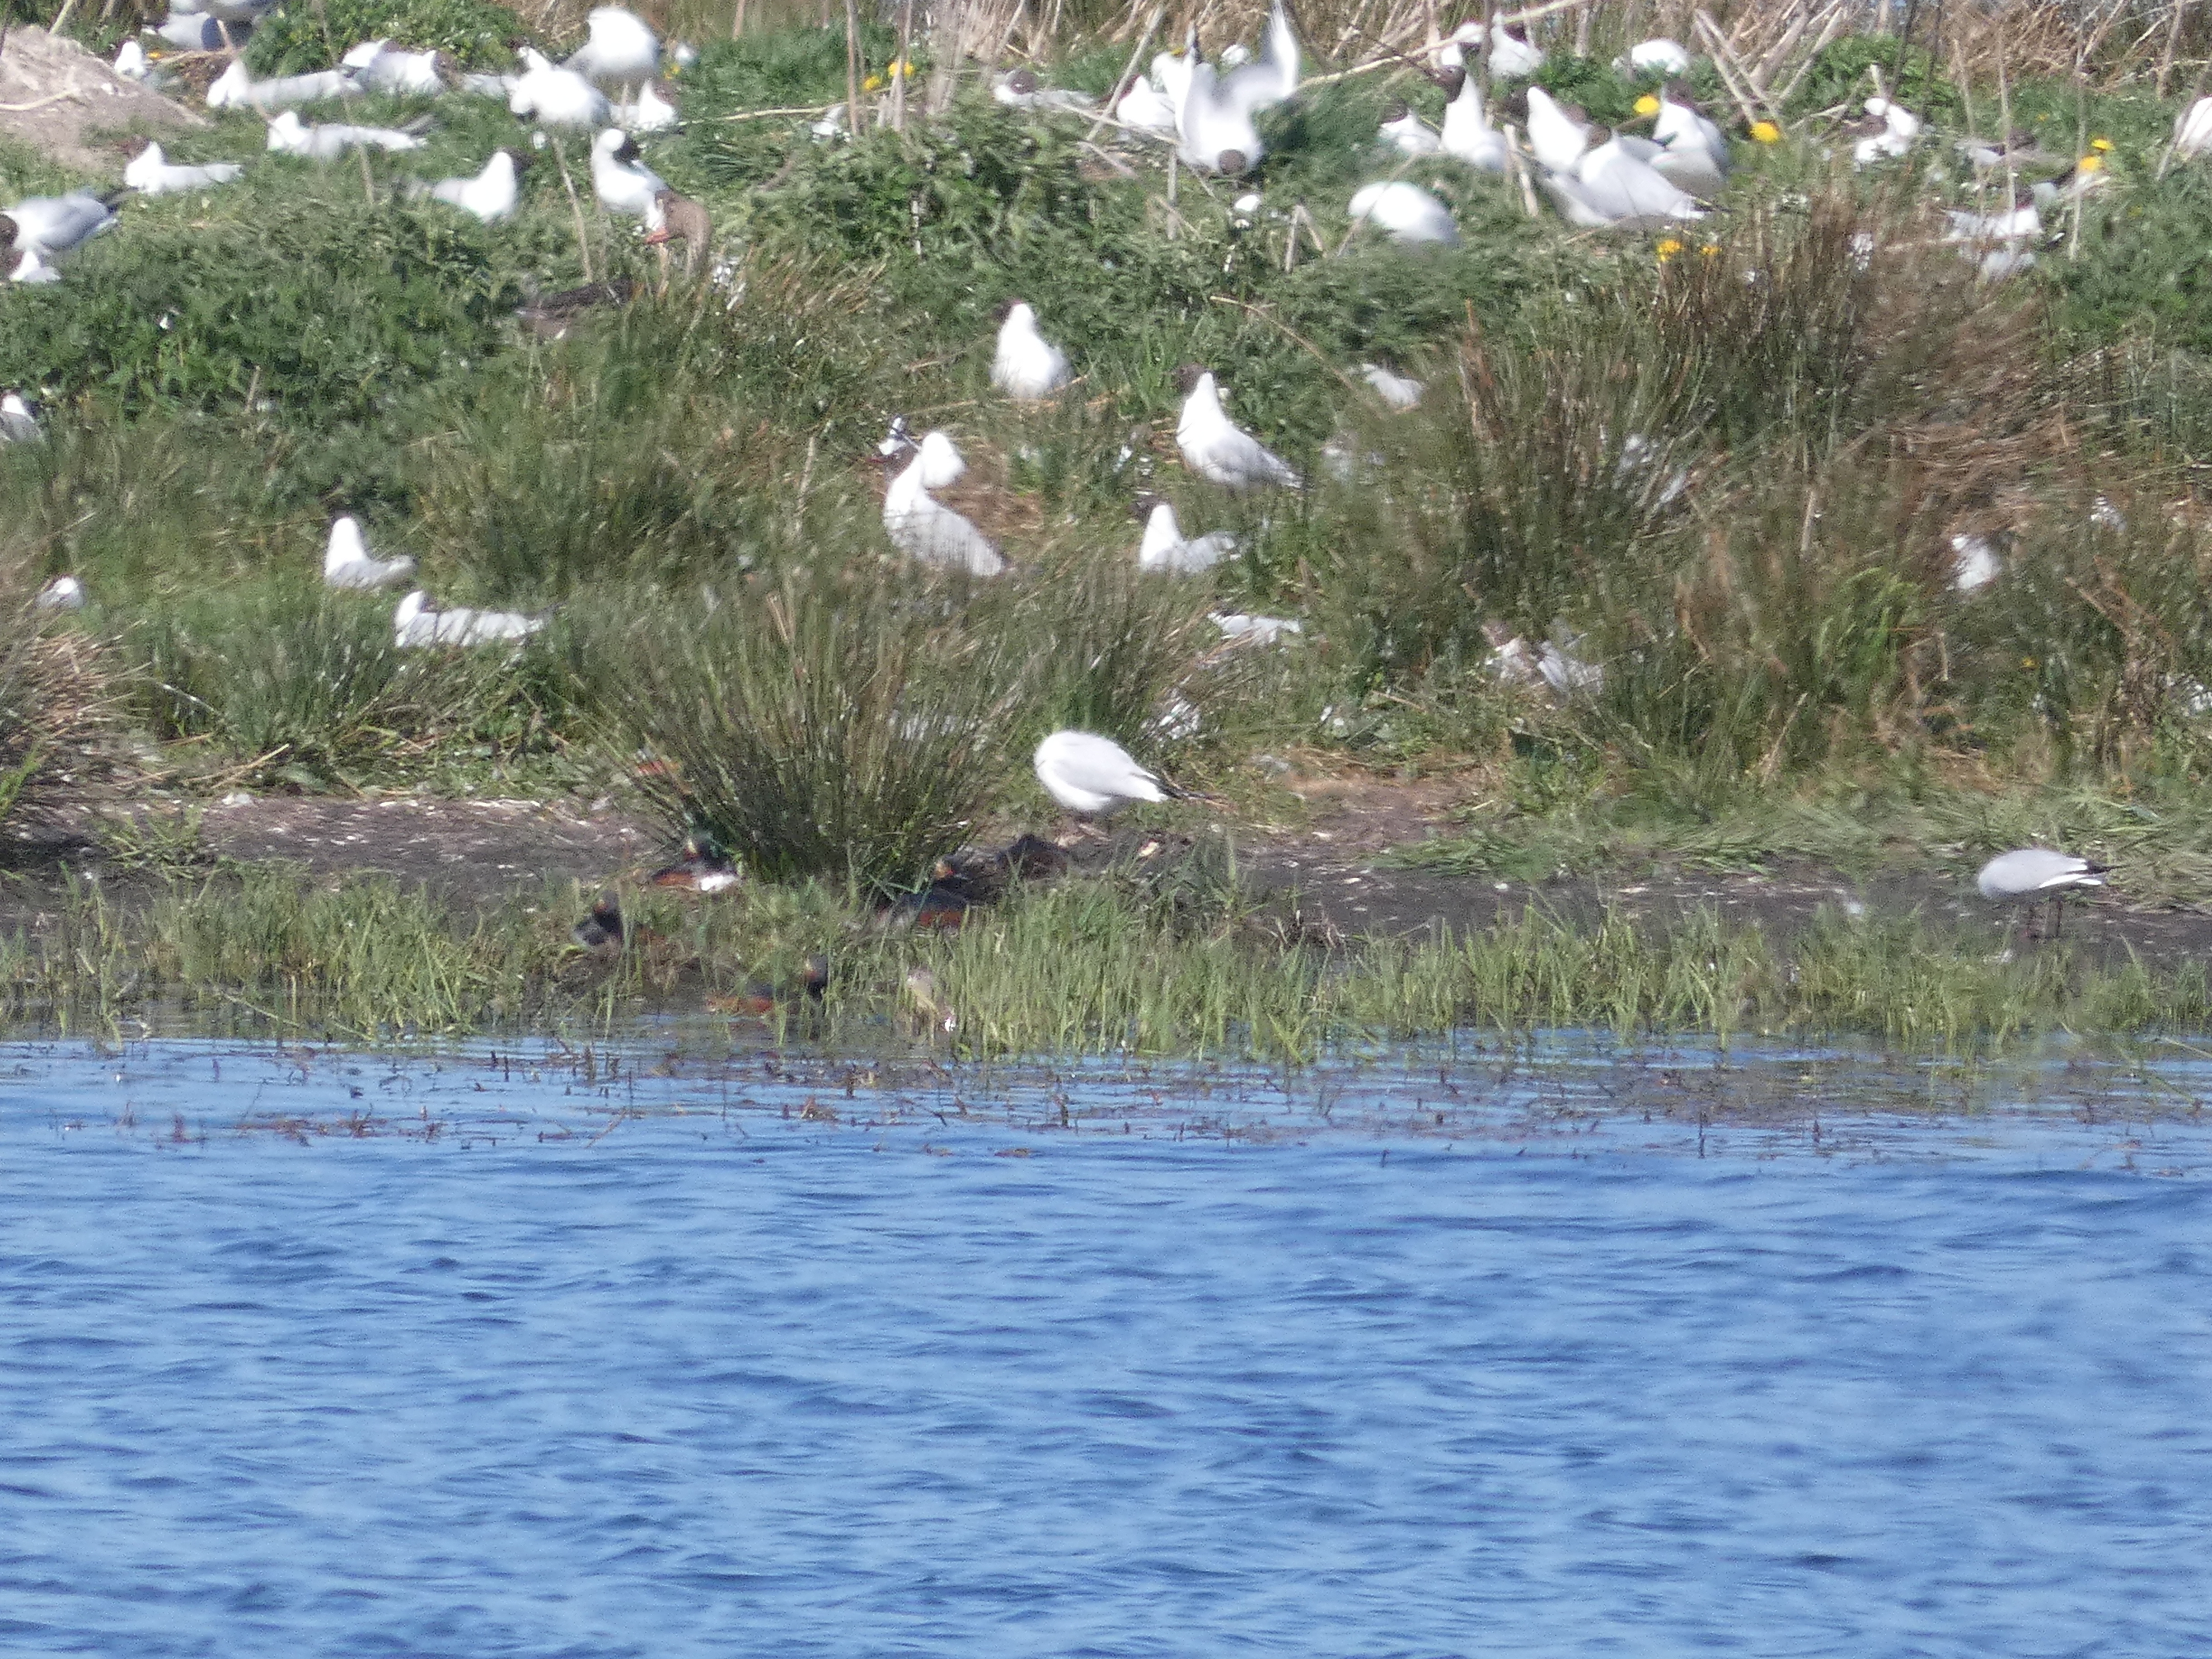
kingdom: Animalia
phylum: Chordata
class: Aves
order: Podicipediformes
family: Podicipedidae
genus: Podiceps
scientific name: Podiceps nigricollis
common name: Sorthalset lappedykker
